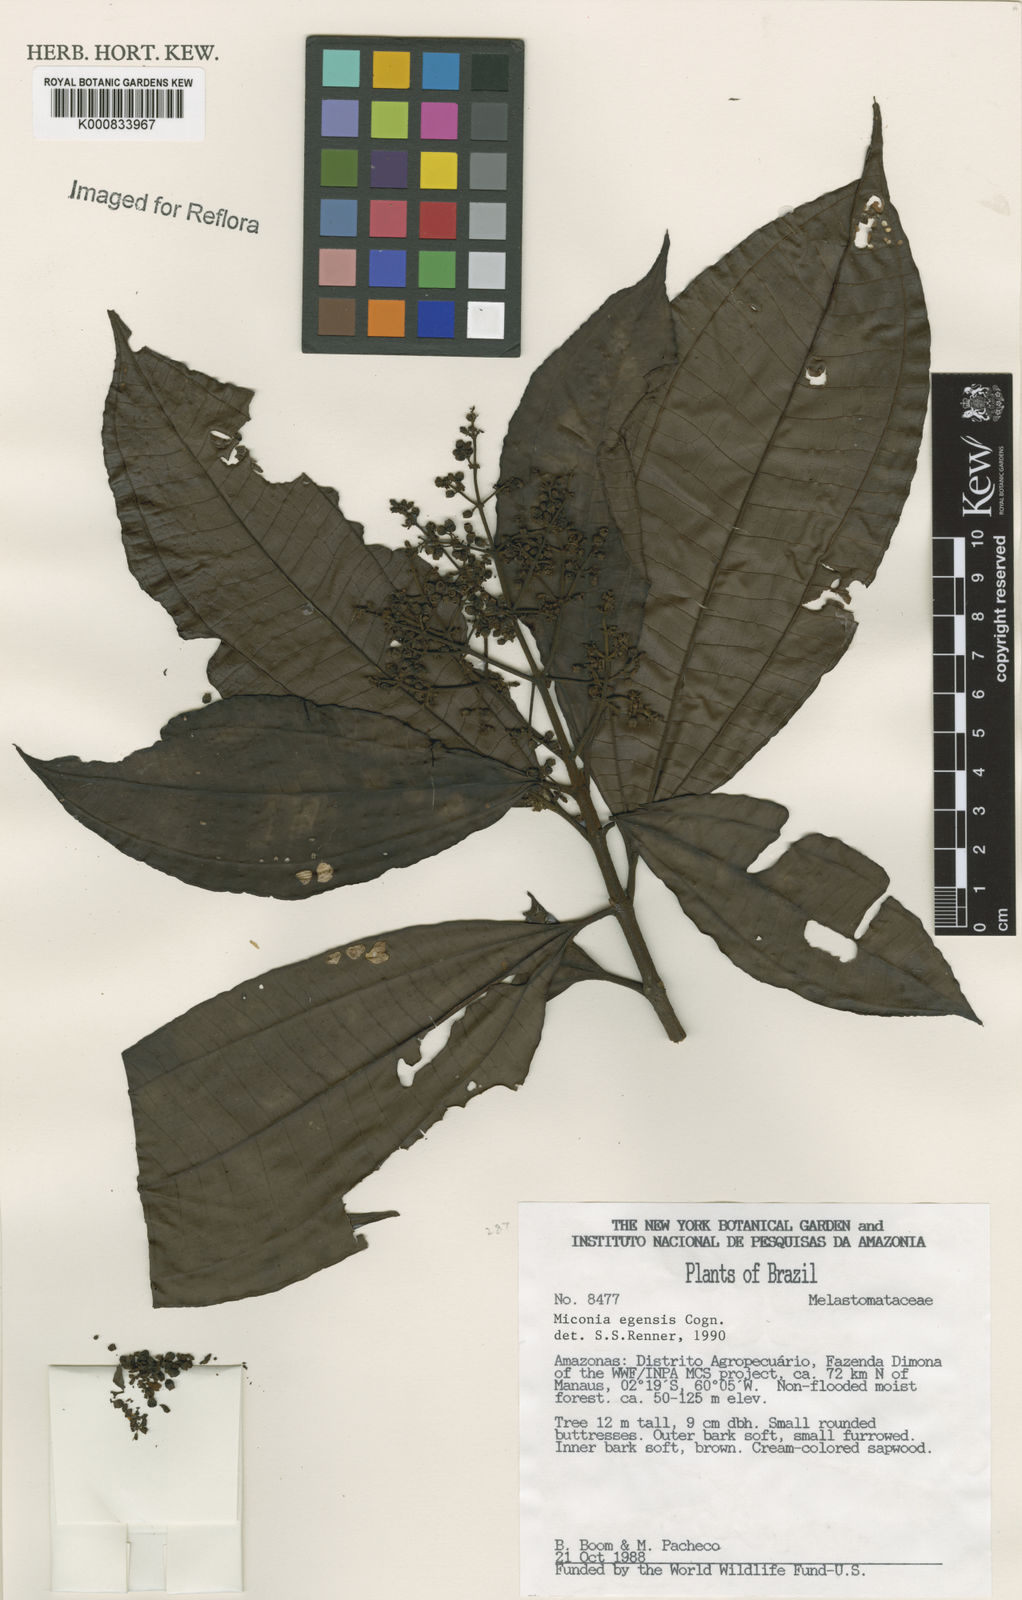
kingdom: Plantae
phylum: Tracheophyta
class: Magnoliopsida
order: Myrtales
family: Melastomataceae
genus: Miconia
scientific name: Miconia egensis
